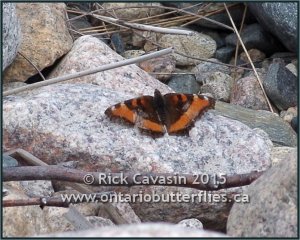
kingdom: Animalia
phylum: Arthropoda
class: Insecta
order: Lepidoptera
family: Nymphalidae
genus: Aglais
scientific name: Aglais milberti
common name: Milbert's Tortoiseshell
